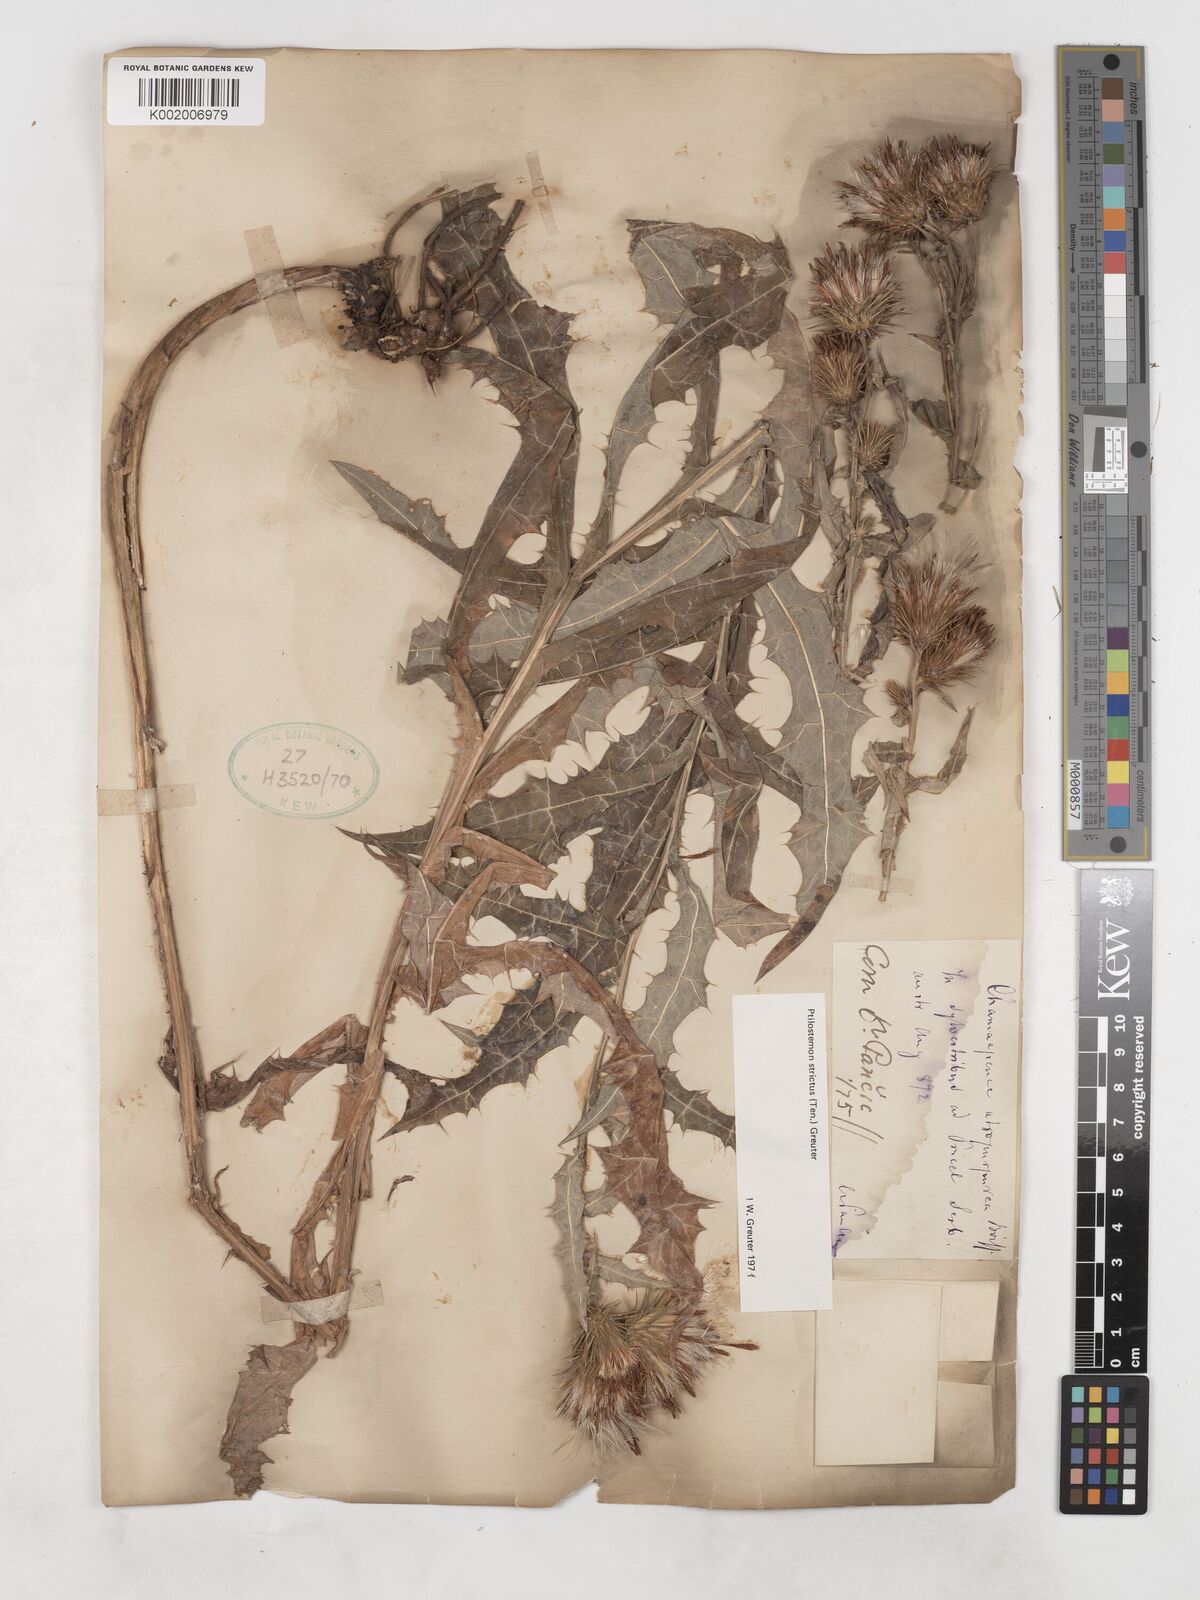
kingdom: Plantae
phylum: Tracheophyta
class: Magnoliopsida
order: Asterales
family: Asteraceae
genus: Ptilostemon
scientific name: Ptilostemon strictus
